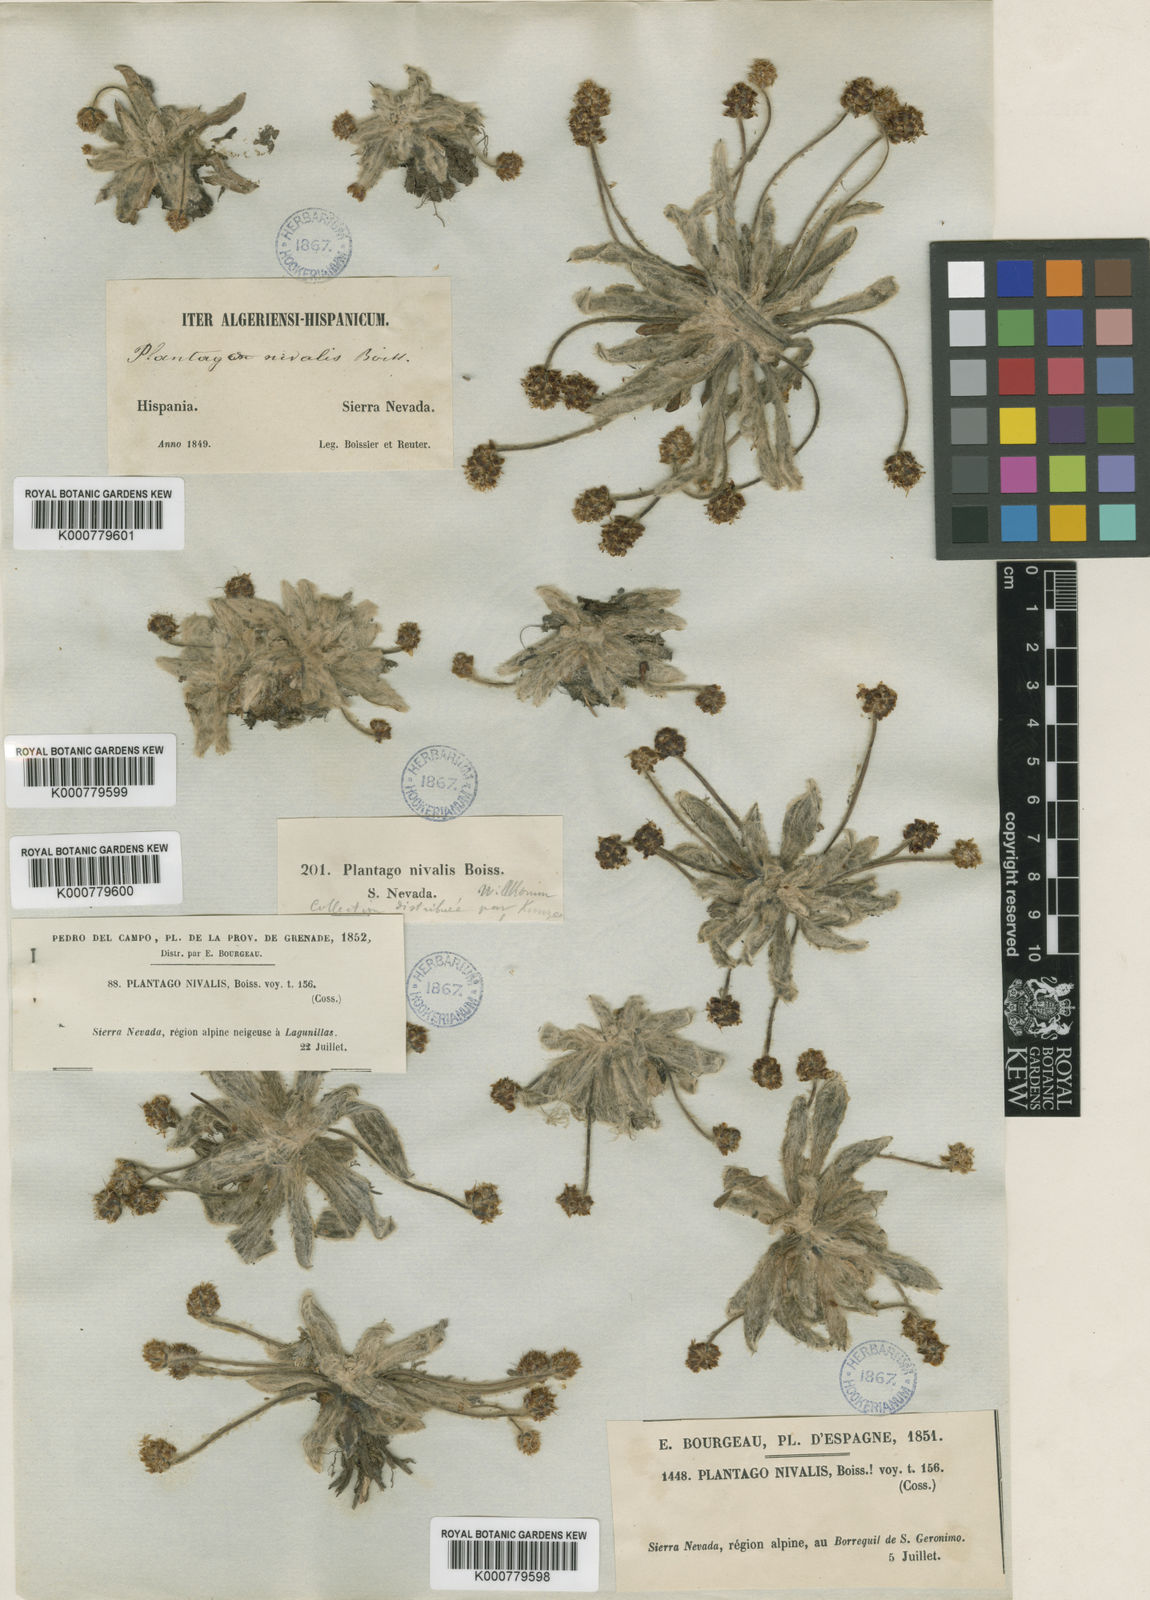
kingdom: Plantae
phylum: Tracheophyta
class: Magnoliopsida
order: Lamiales
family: Plantaginaceae
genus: Plantago
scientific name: Plantago nivalis
